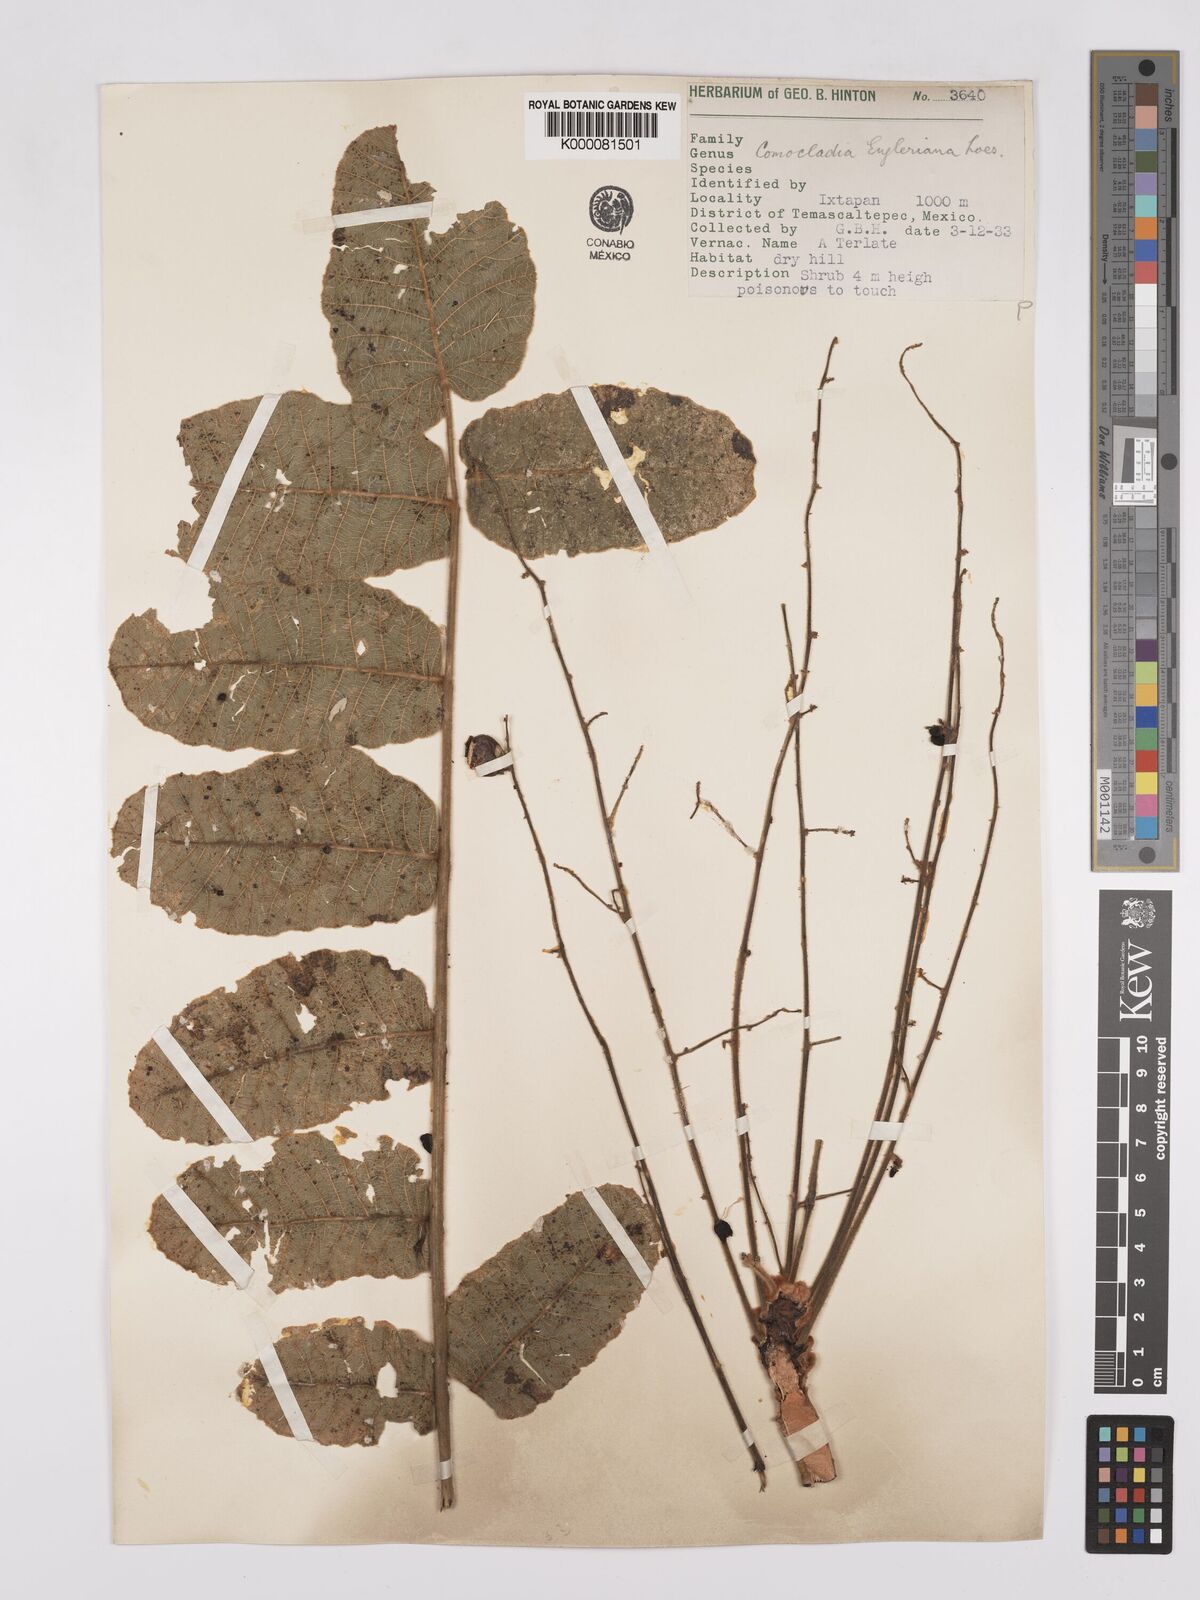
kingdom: Plantae
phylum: Tracheophyta
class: Magnoliopsida
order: Sapindales
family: Anacardiaceae
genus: Comocladia
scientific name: Comocladia
